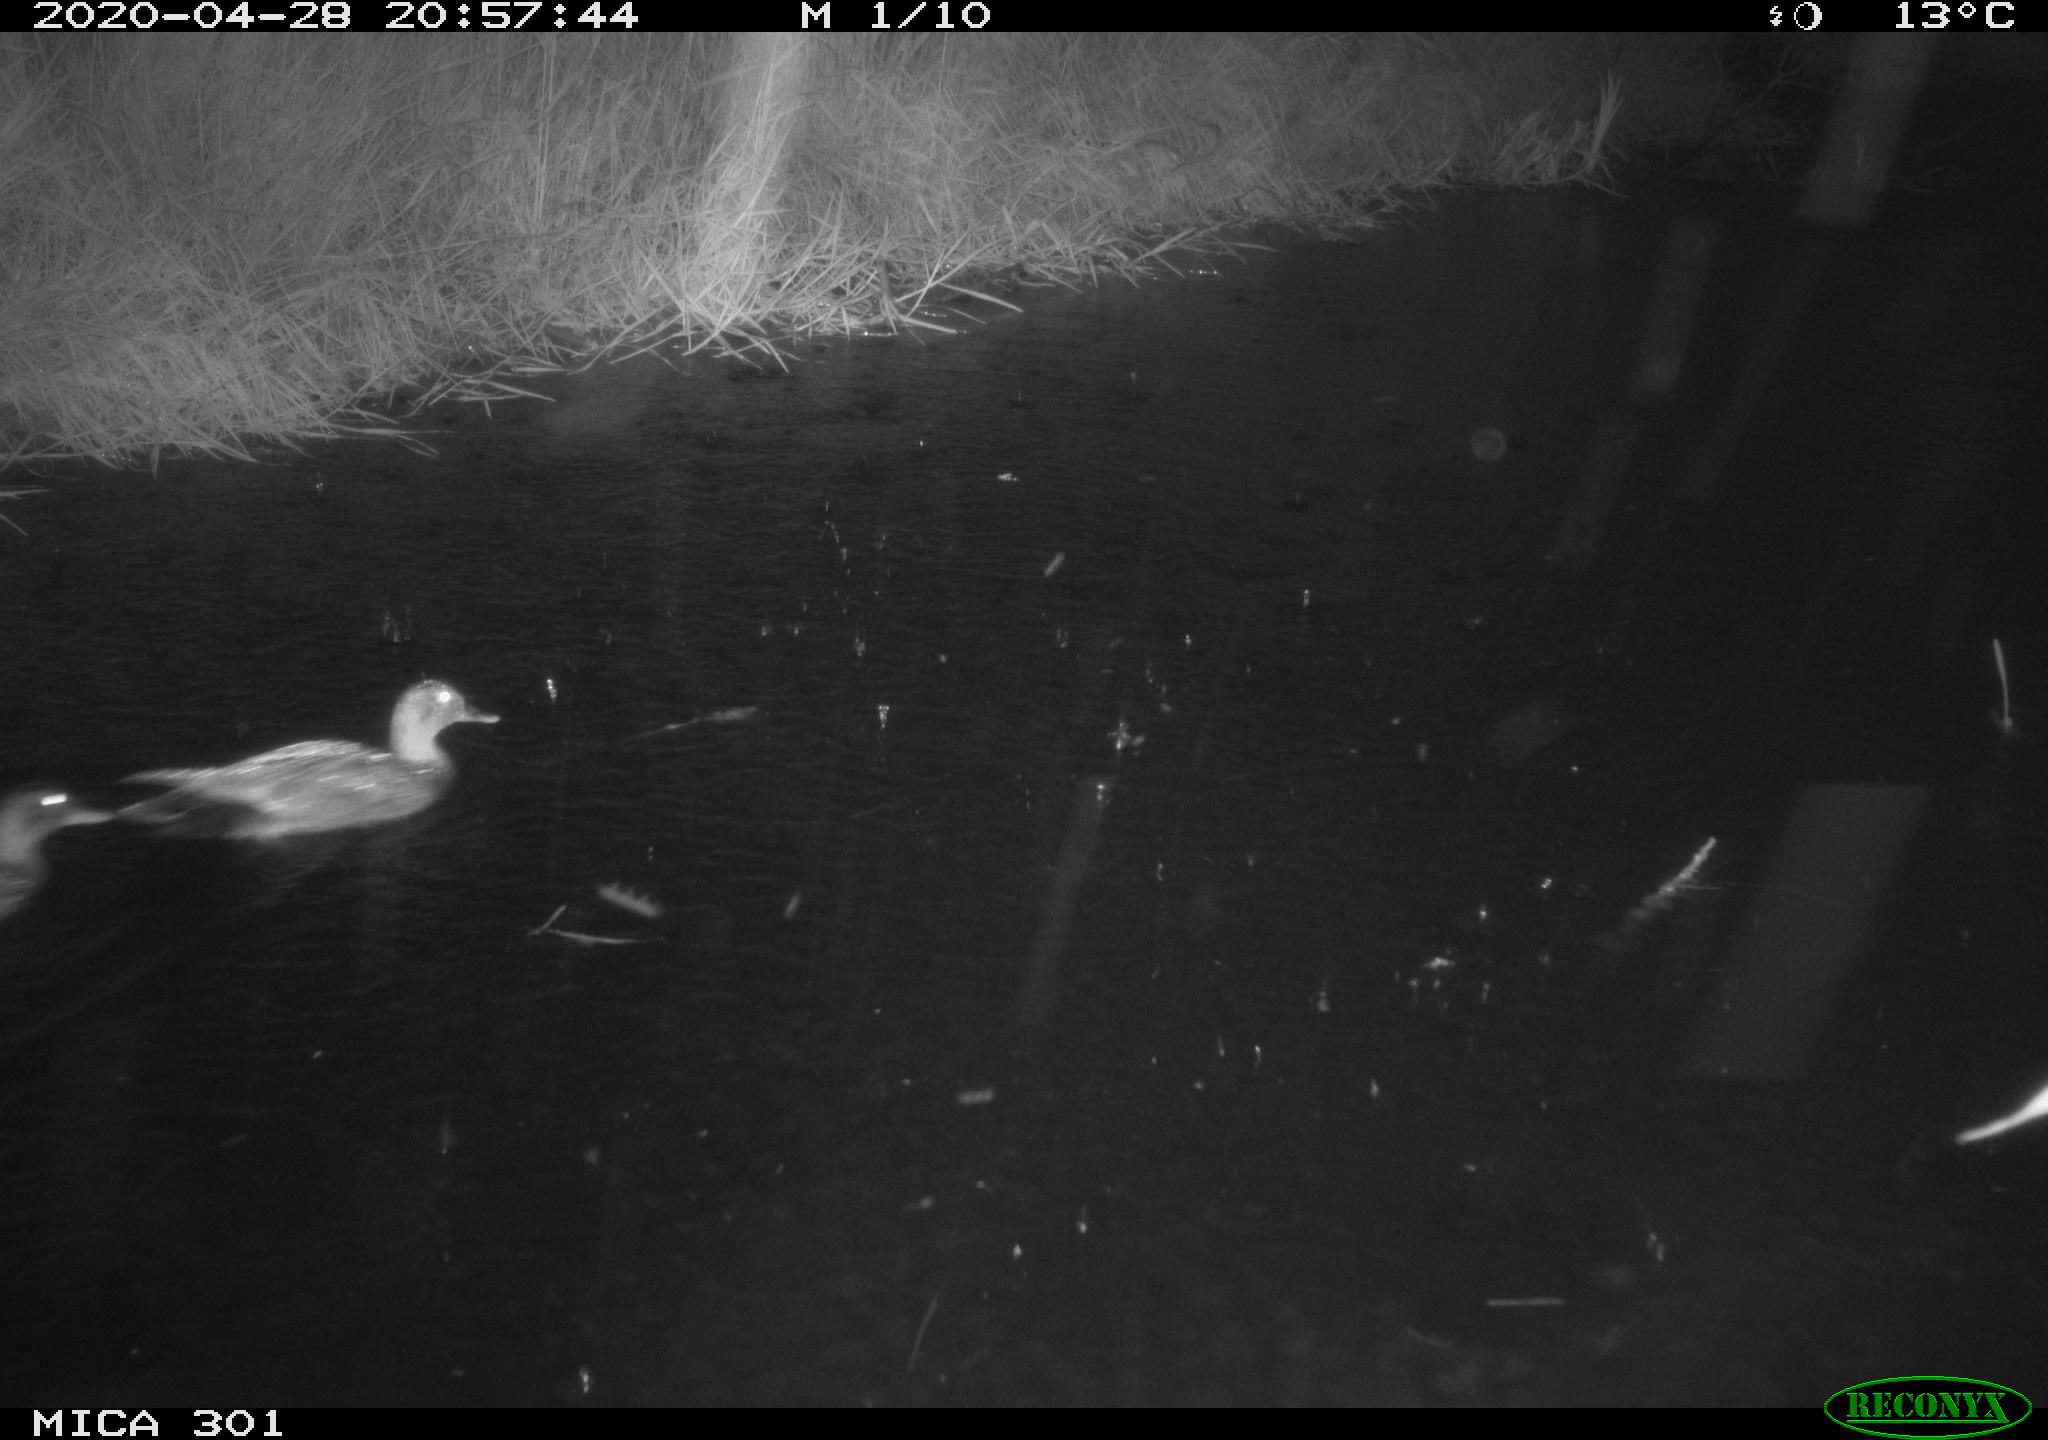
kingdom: Animalia
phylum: Chordata
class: Aves
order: Anseriformes
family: Anatidae
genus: Mareca
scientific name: Mareca strepera
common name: Gadwall
